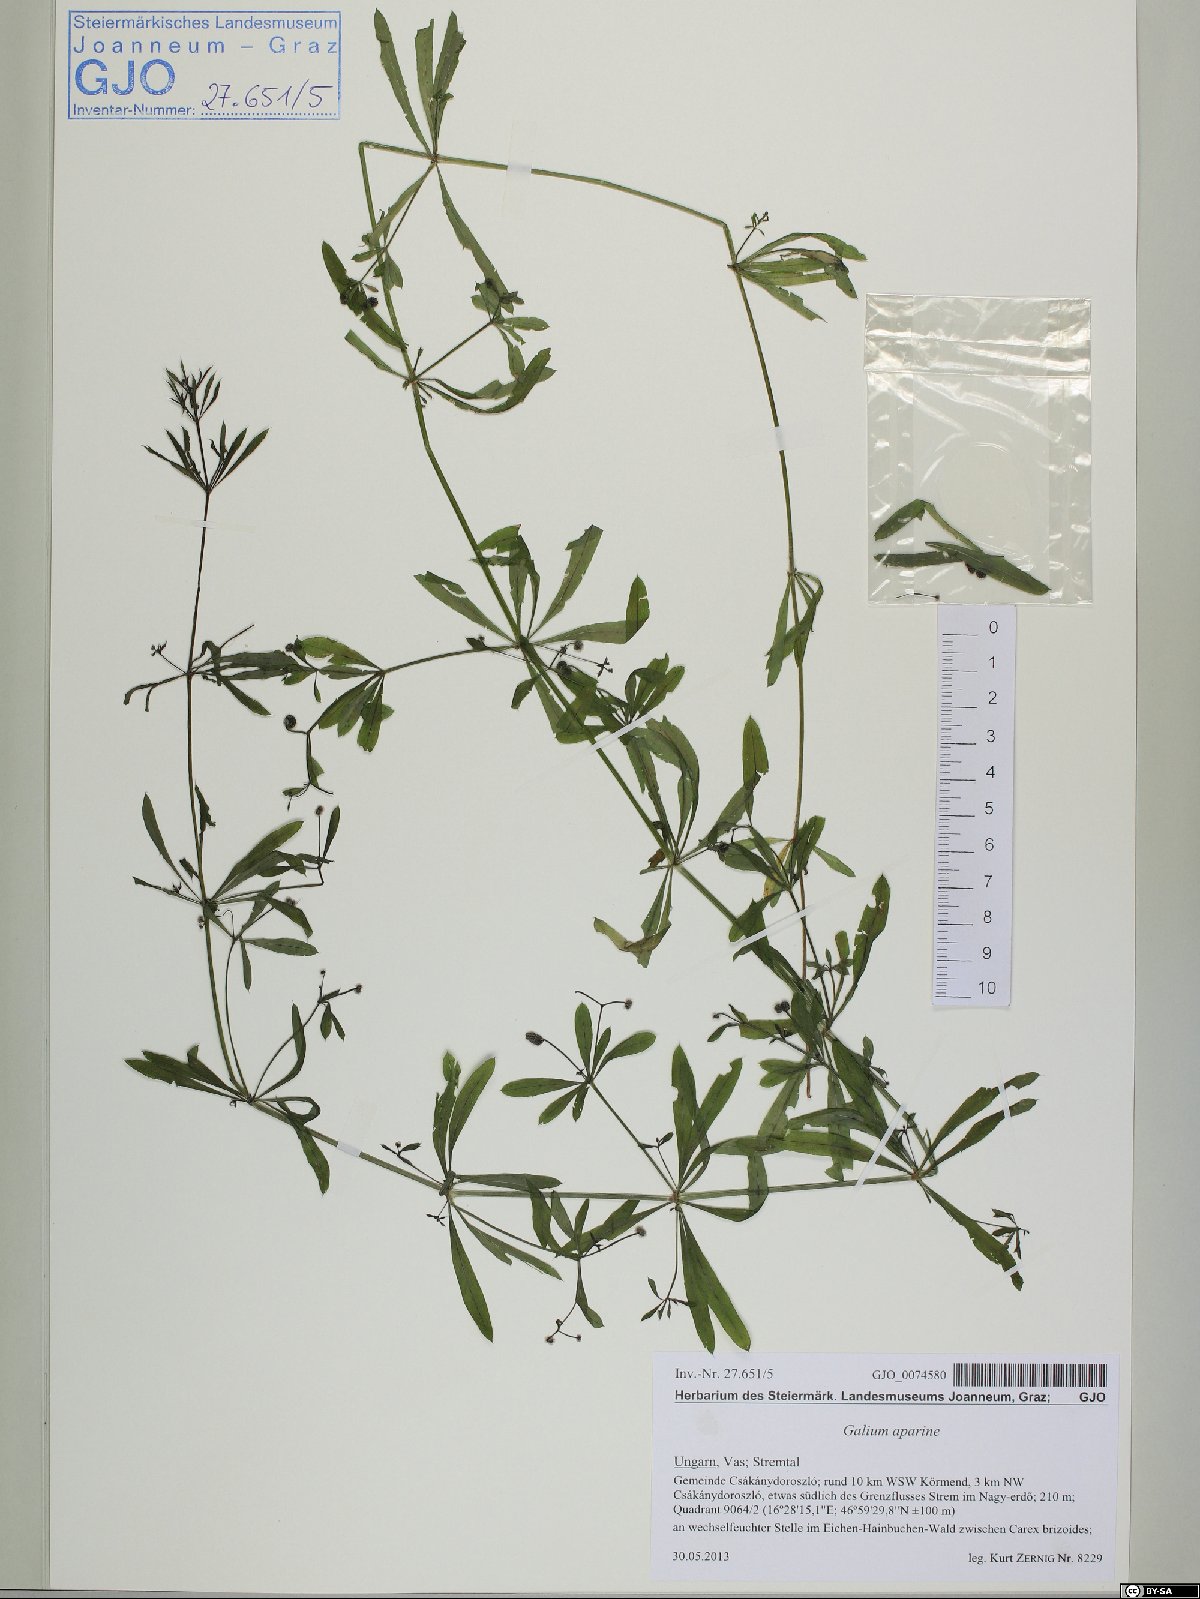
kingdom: Plantae
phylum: Tracheophyta
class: Magnoliopsida
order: Gentianales
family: Rubiaceae
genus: Galium
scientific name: Galium aparine
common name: Cleavers
